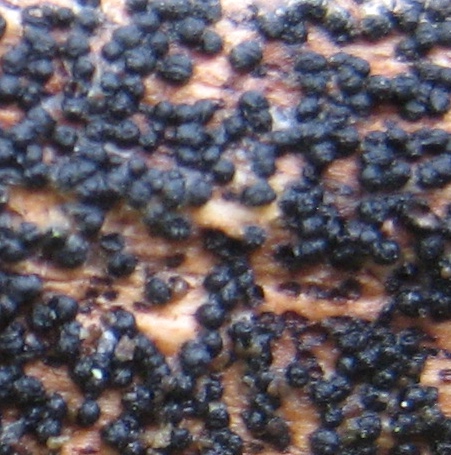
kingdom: Fungi
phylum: Ascomycota
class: Dothideomycetes
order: Pleosporales
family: Melanommataceae
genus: Melanomma
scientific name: Melanomma pulvis-pyrius
